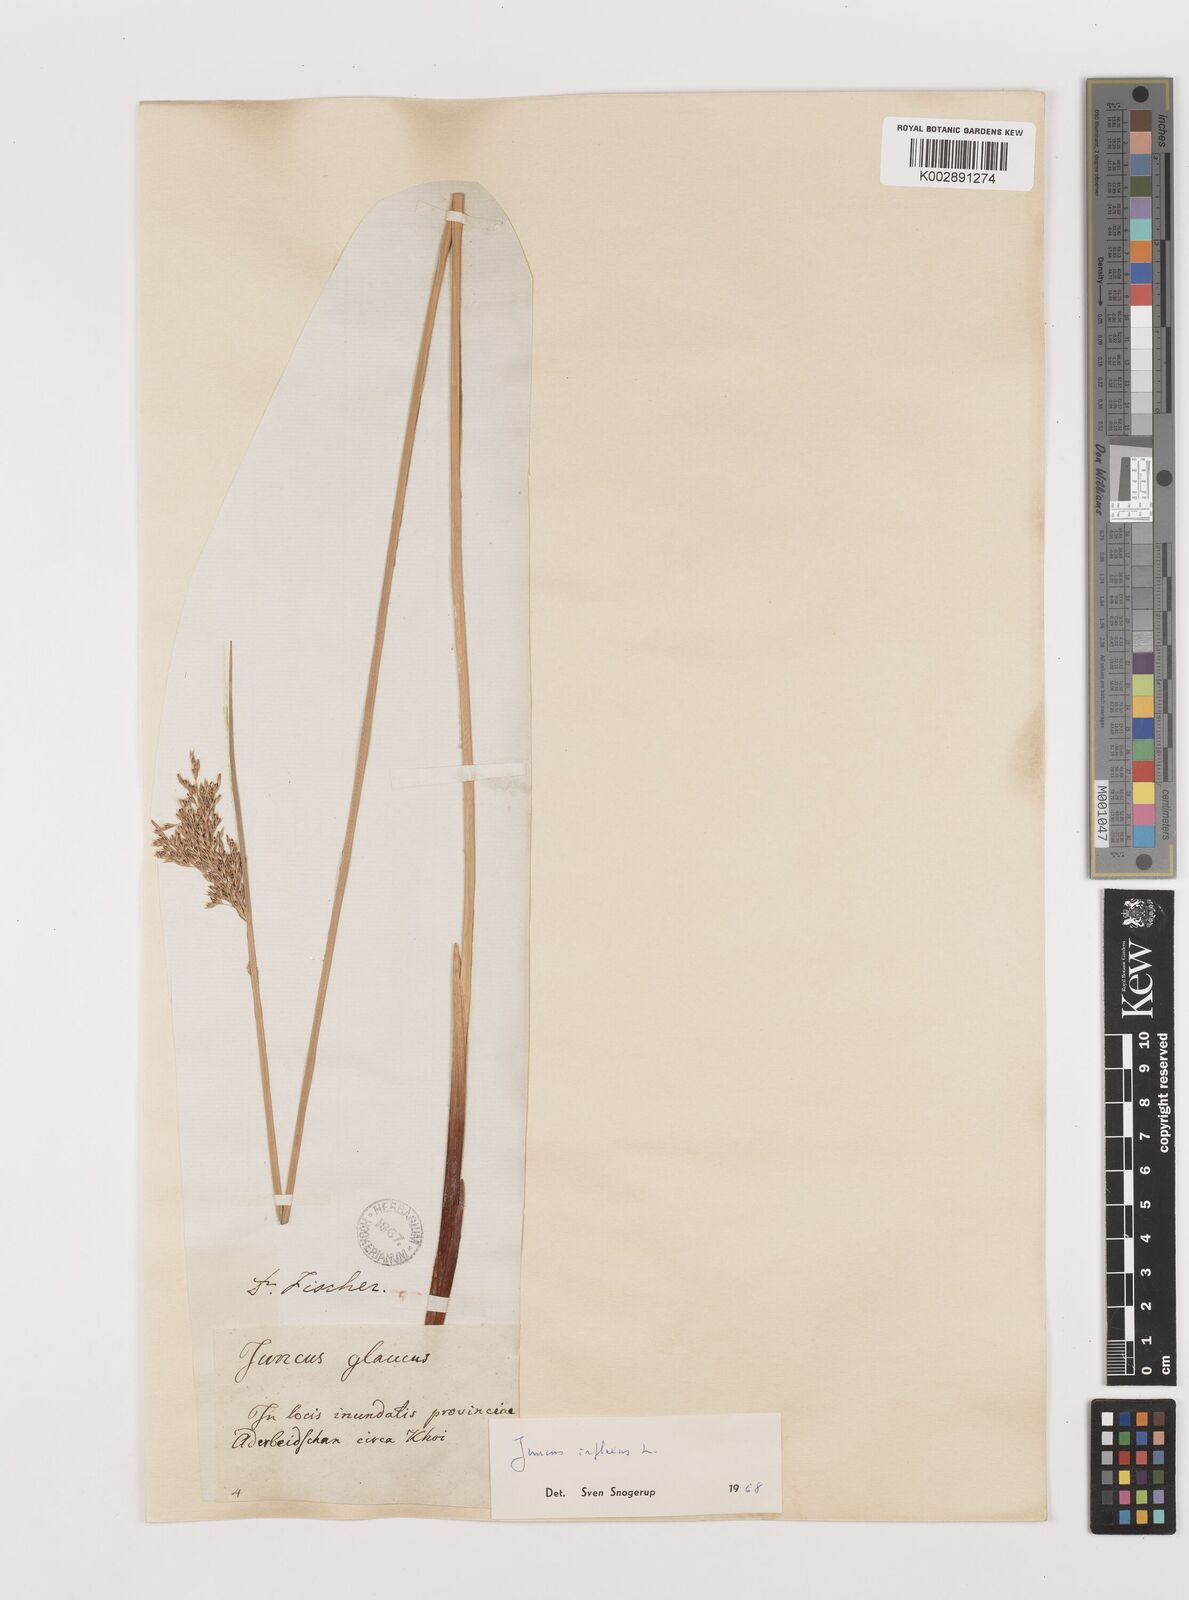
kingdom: Plantae
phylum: Tracheophyta
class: Liliopsida
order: Poales
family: Juncaceae
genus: Juncus
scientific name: Juncus inflexus
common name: Hard rush
